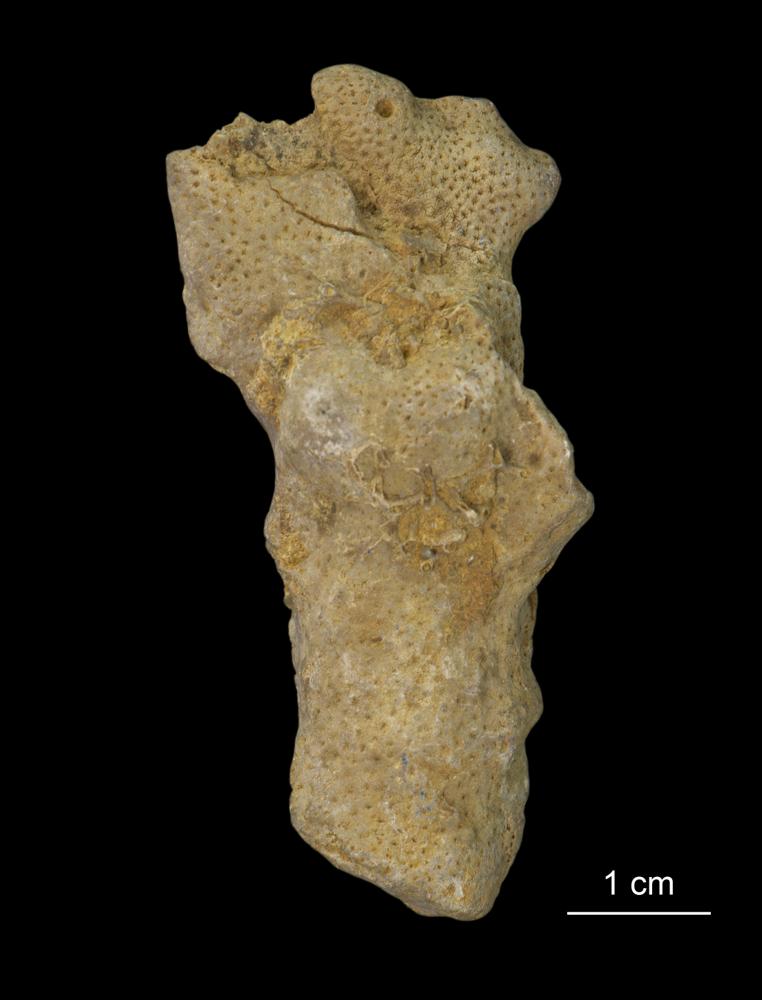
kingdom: Animalia
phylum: Cnidaria
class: Anthozoa
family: Theciidae
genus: Thecia
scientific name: Thecia saaremica
